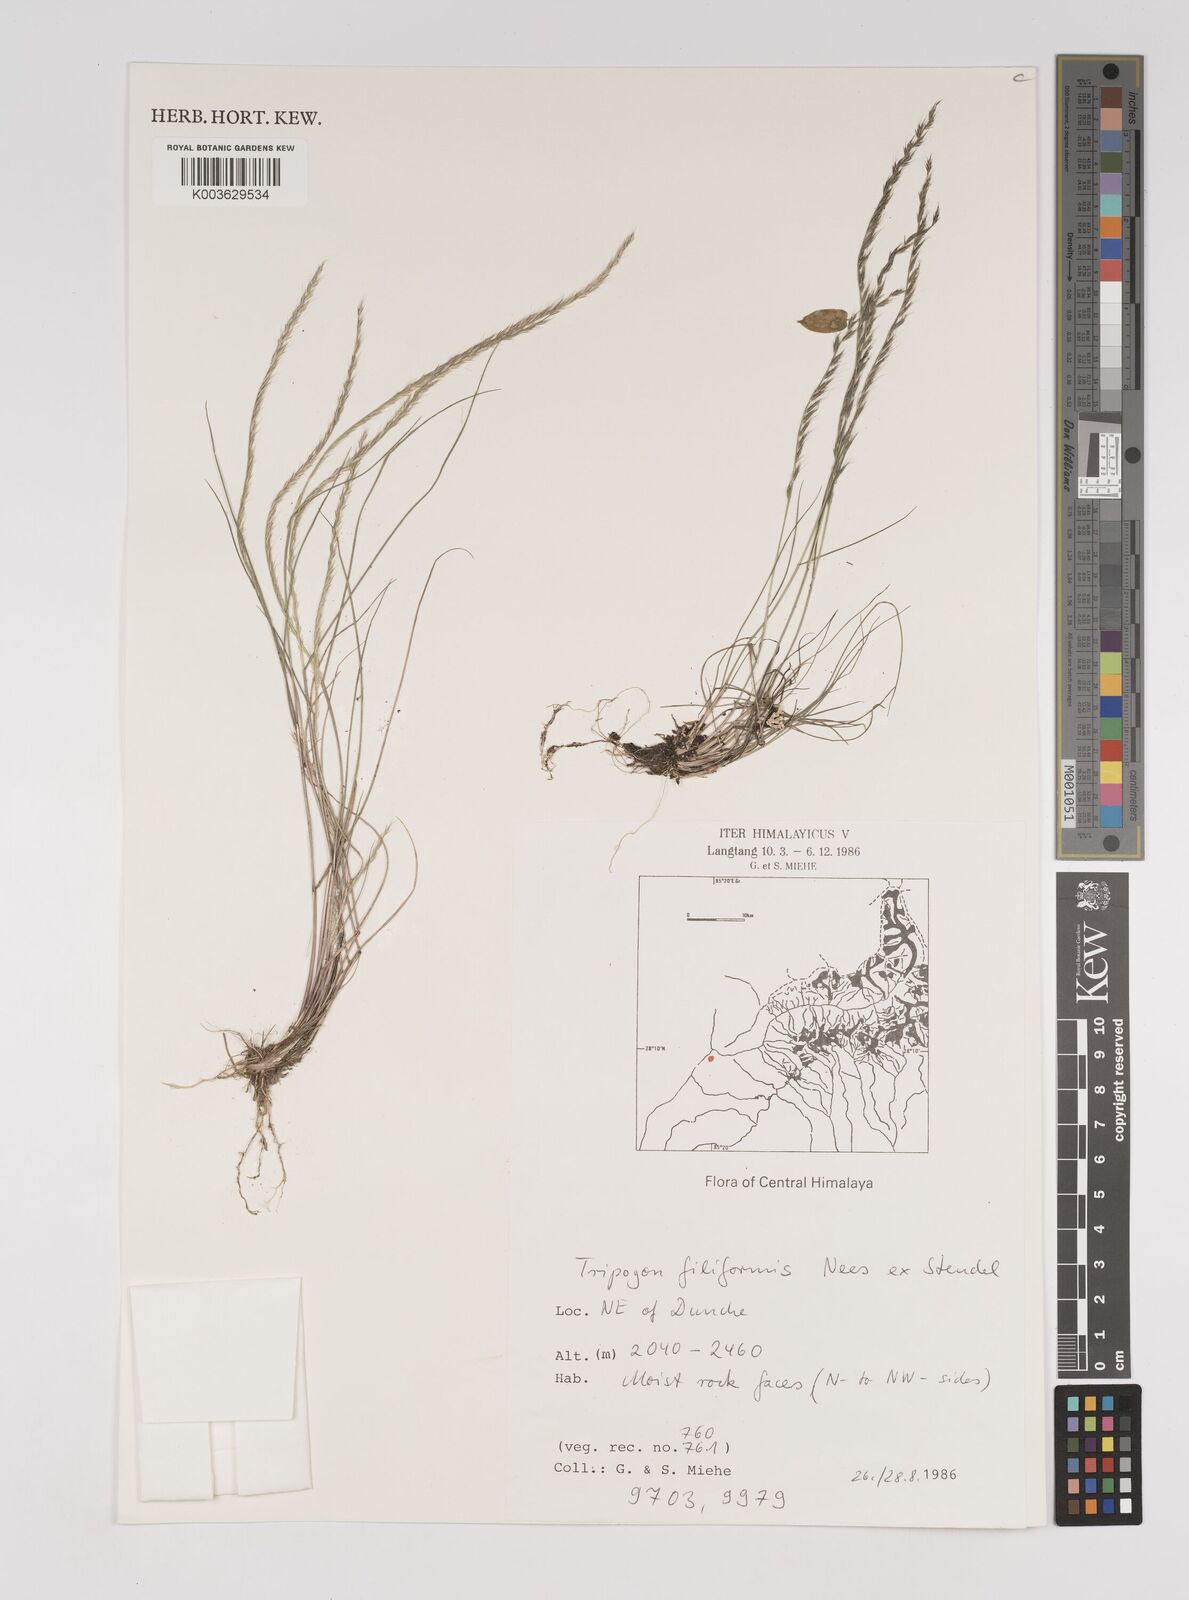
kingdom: Plantae
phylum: Tracheophyta
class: Liliopsida
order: Poales
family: Poaceae
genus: Tripogon
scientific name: Tripogon filiformis
